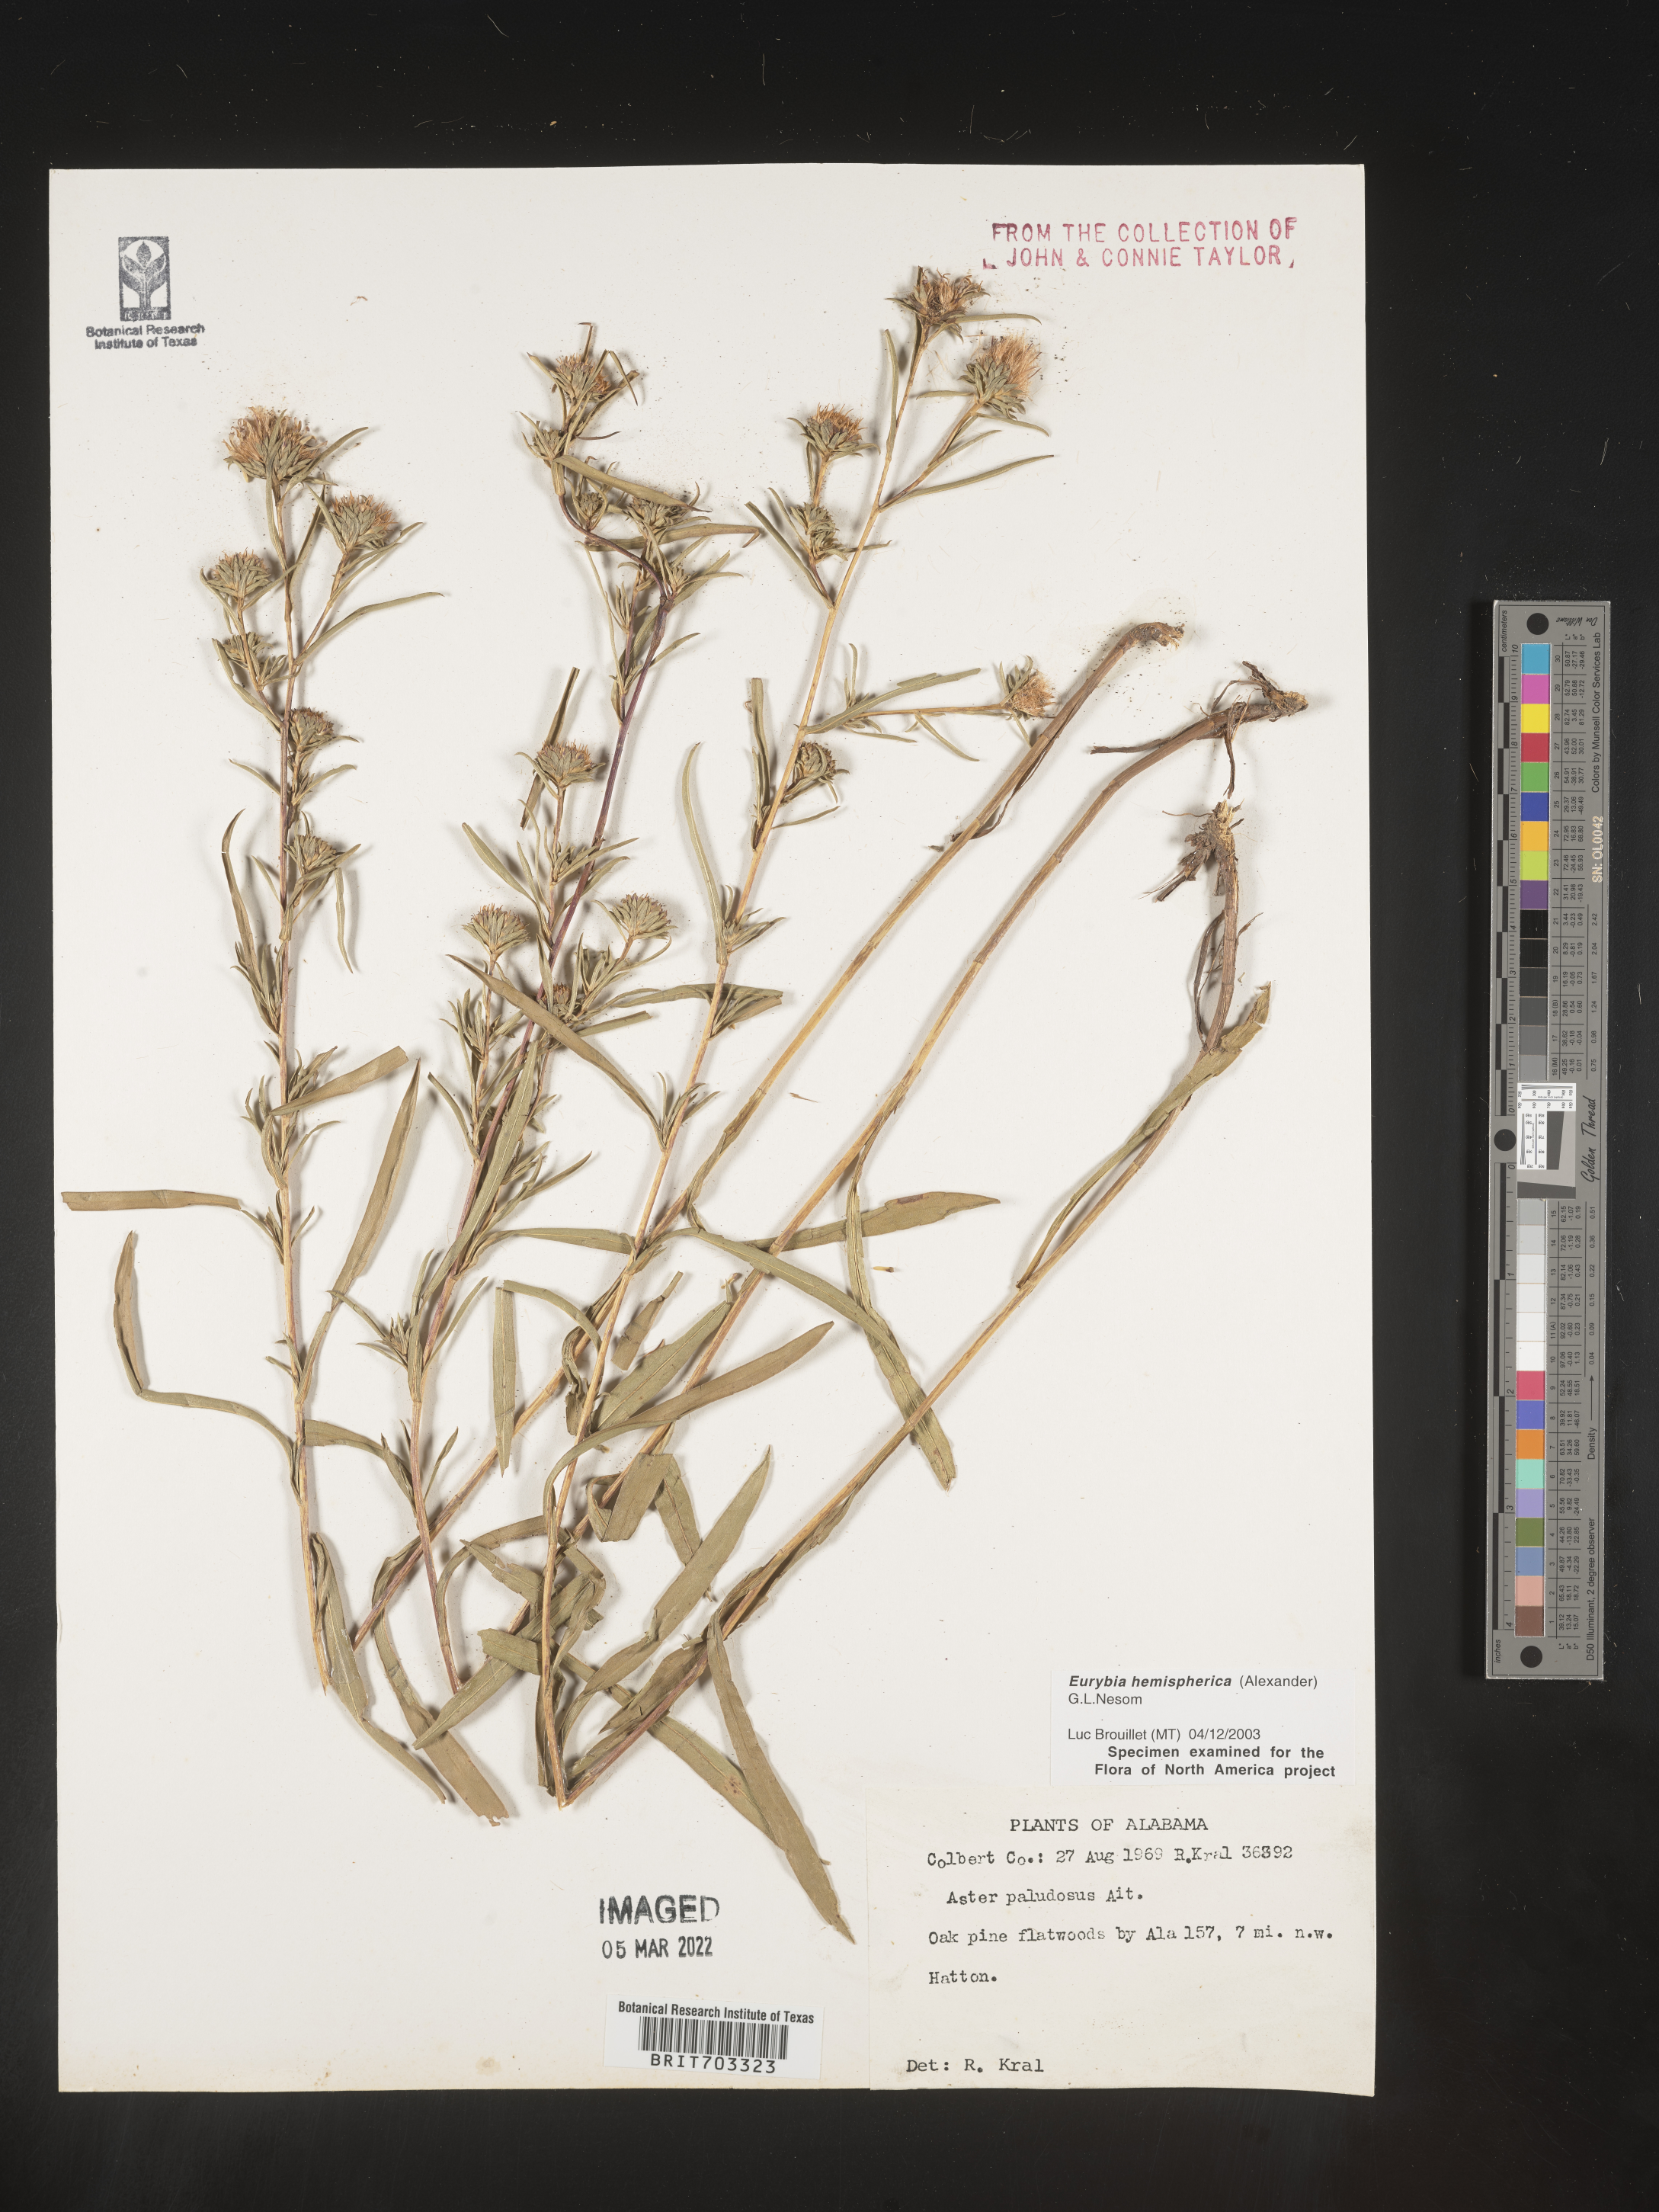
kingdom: Plantae
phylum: Tracheophyta
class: Magnoliopsida
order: Asterales
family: Asteraceae
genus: Eurybia
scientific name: Eurybia hemispherica
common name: Showy aster
